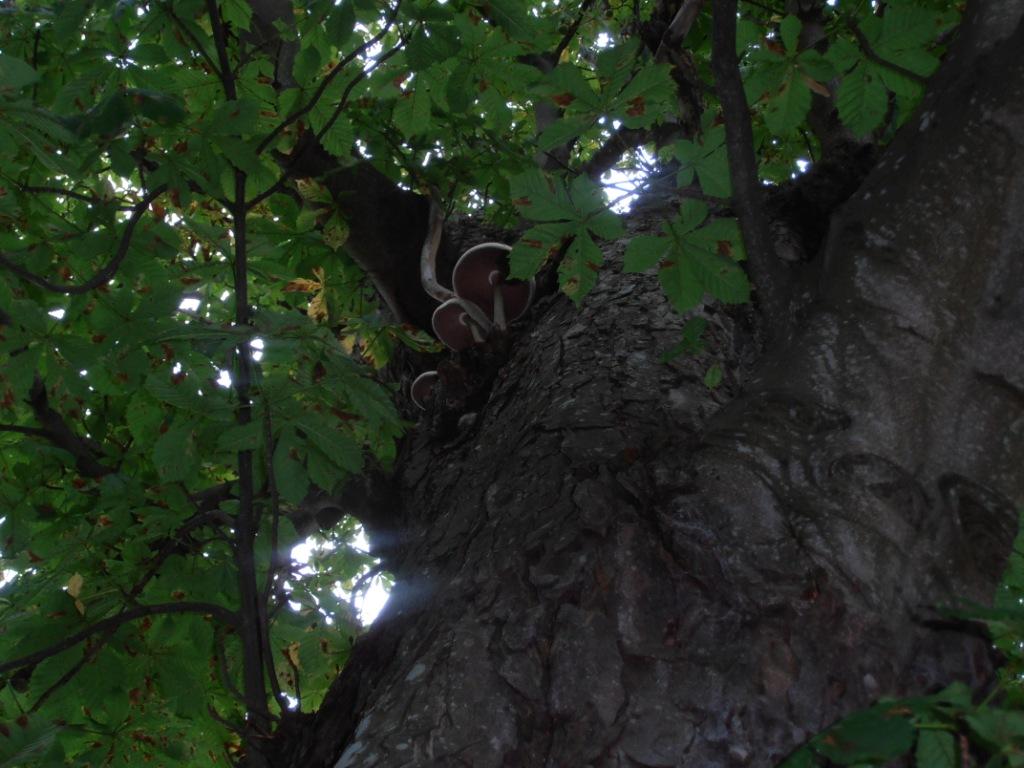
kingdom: Fungi
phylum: Basidiomycota
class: Agaricomycetes
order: Agaricales
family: Pluteaceae
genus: Volvariella
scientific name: Volvariella bombycina
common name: silkehåret posesvamp
